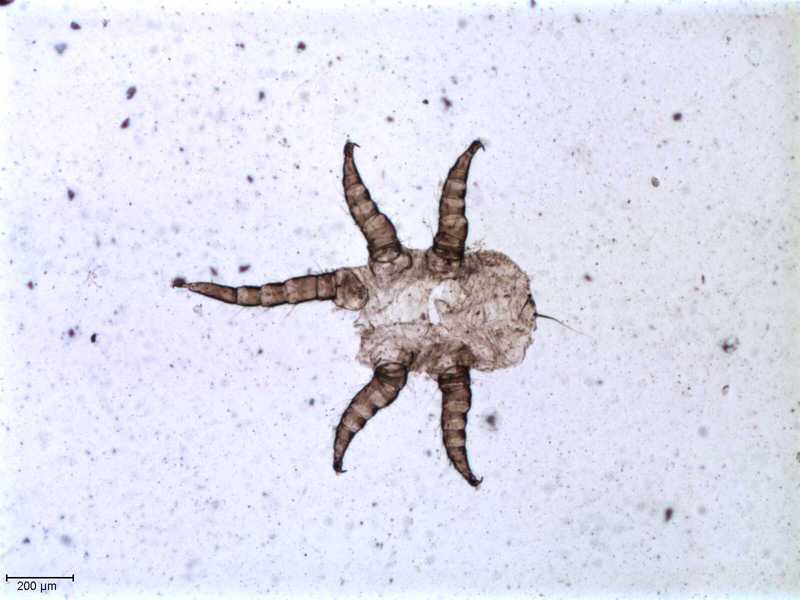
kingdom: Animalia
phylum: Arthropoda
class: Arachnida
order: Mesostigmata
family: Halarachnidae
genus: Orthohalarachne
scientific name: Orthohalarachne letalis
